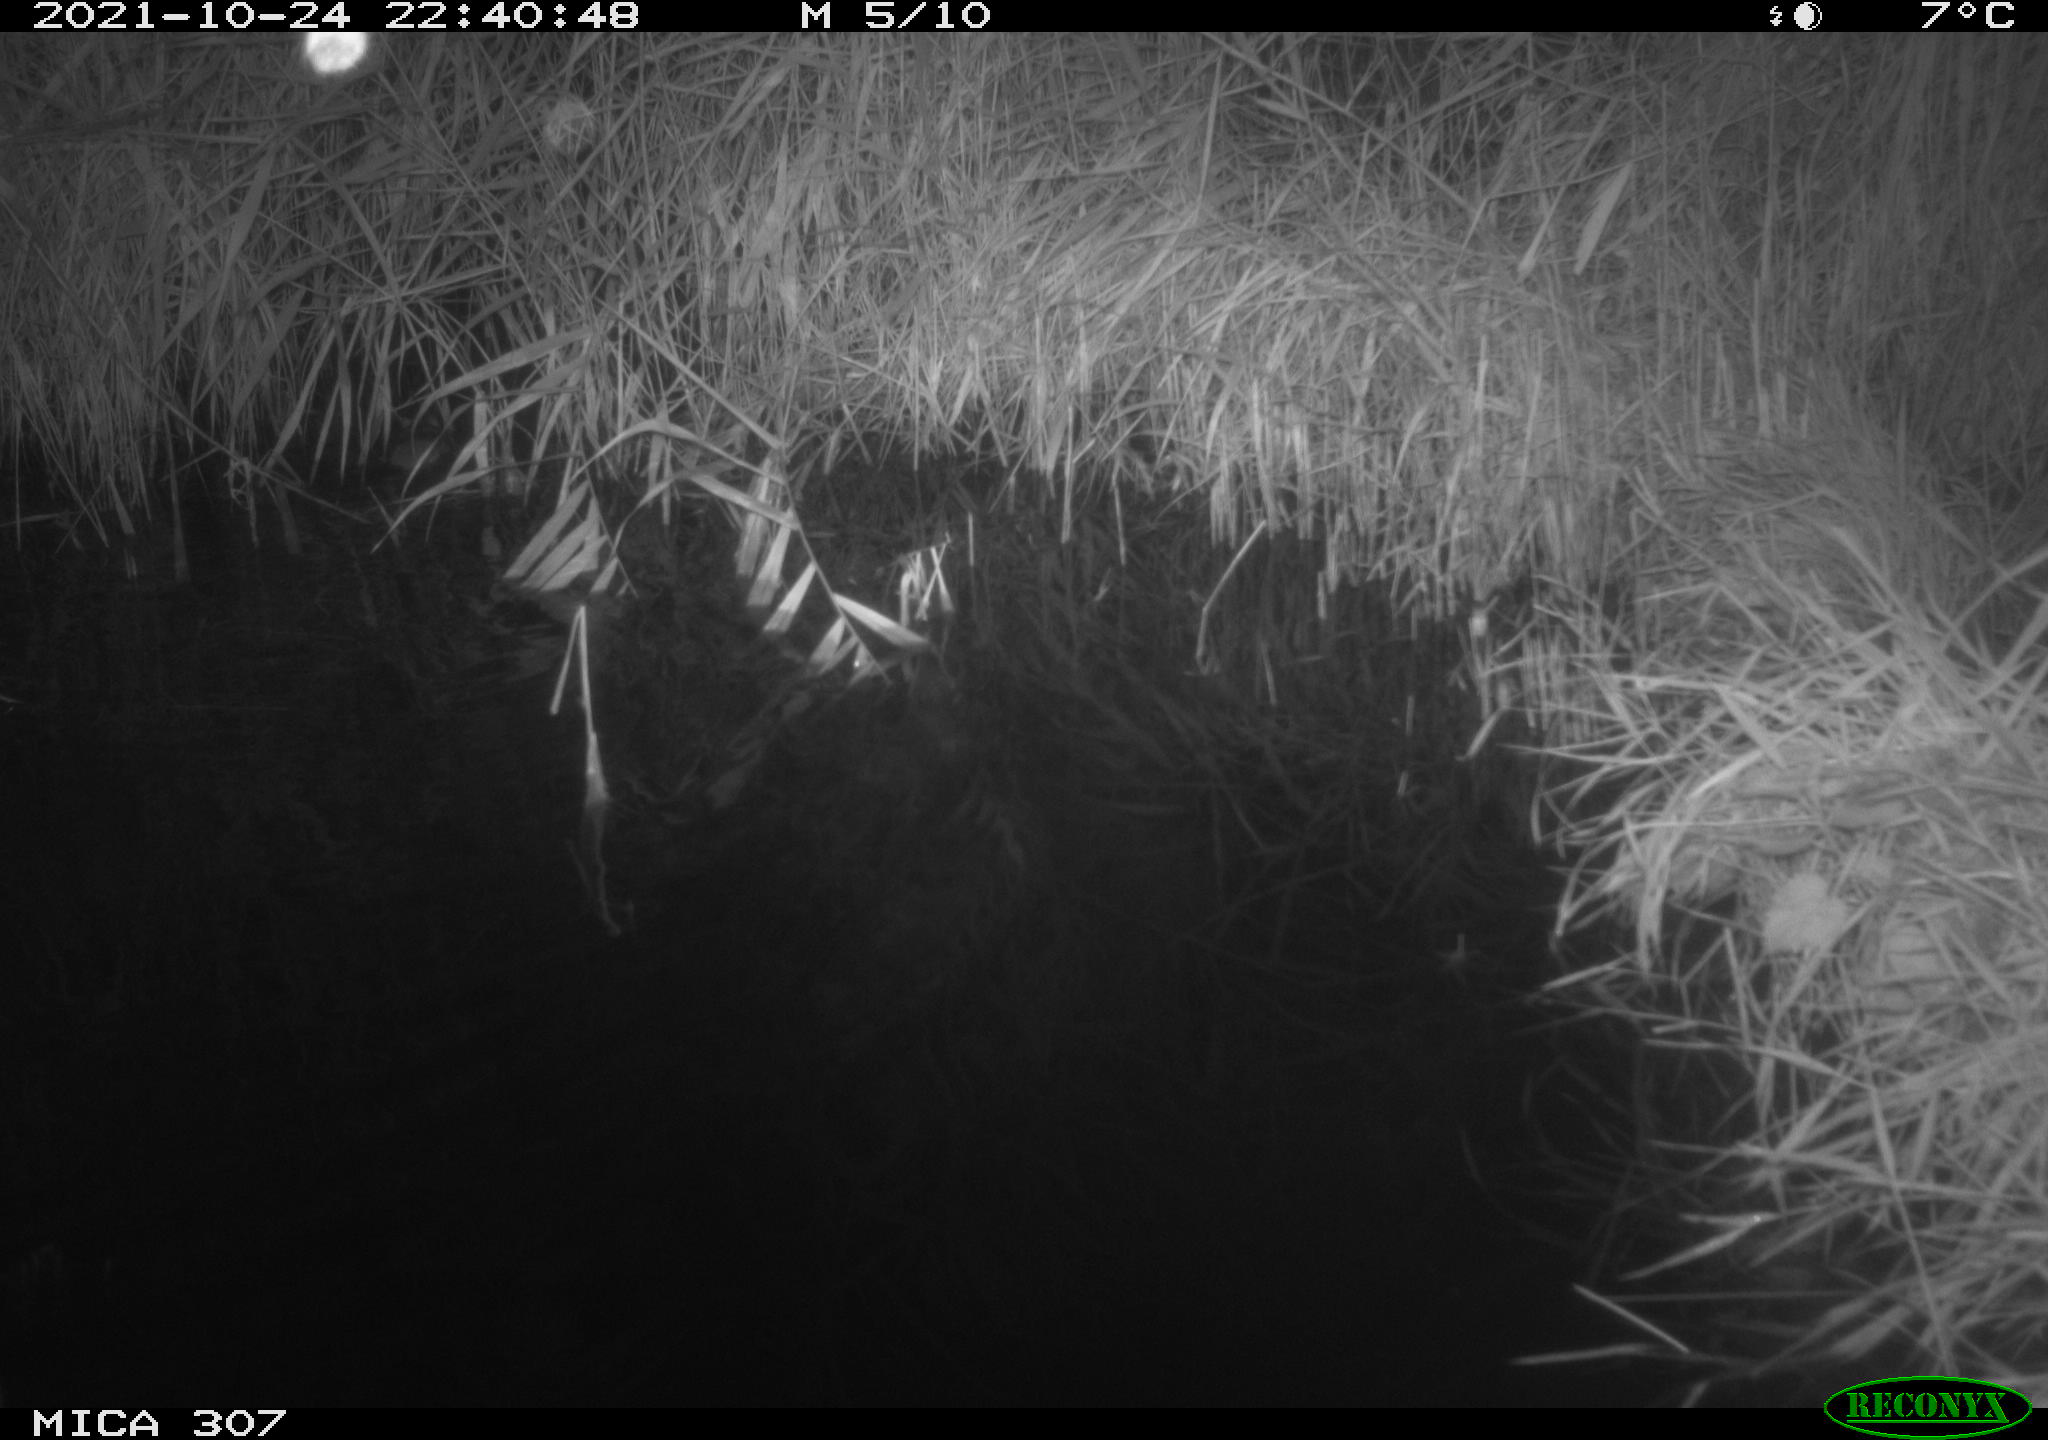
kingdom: Animalia
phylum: Chordata
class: Mammalia
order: Rodentia
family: Muridae
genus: Rattus
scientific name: Rattus norvegicus
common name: Brown rat
